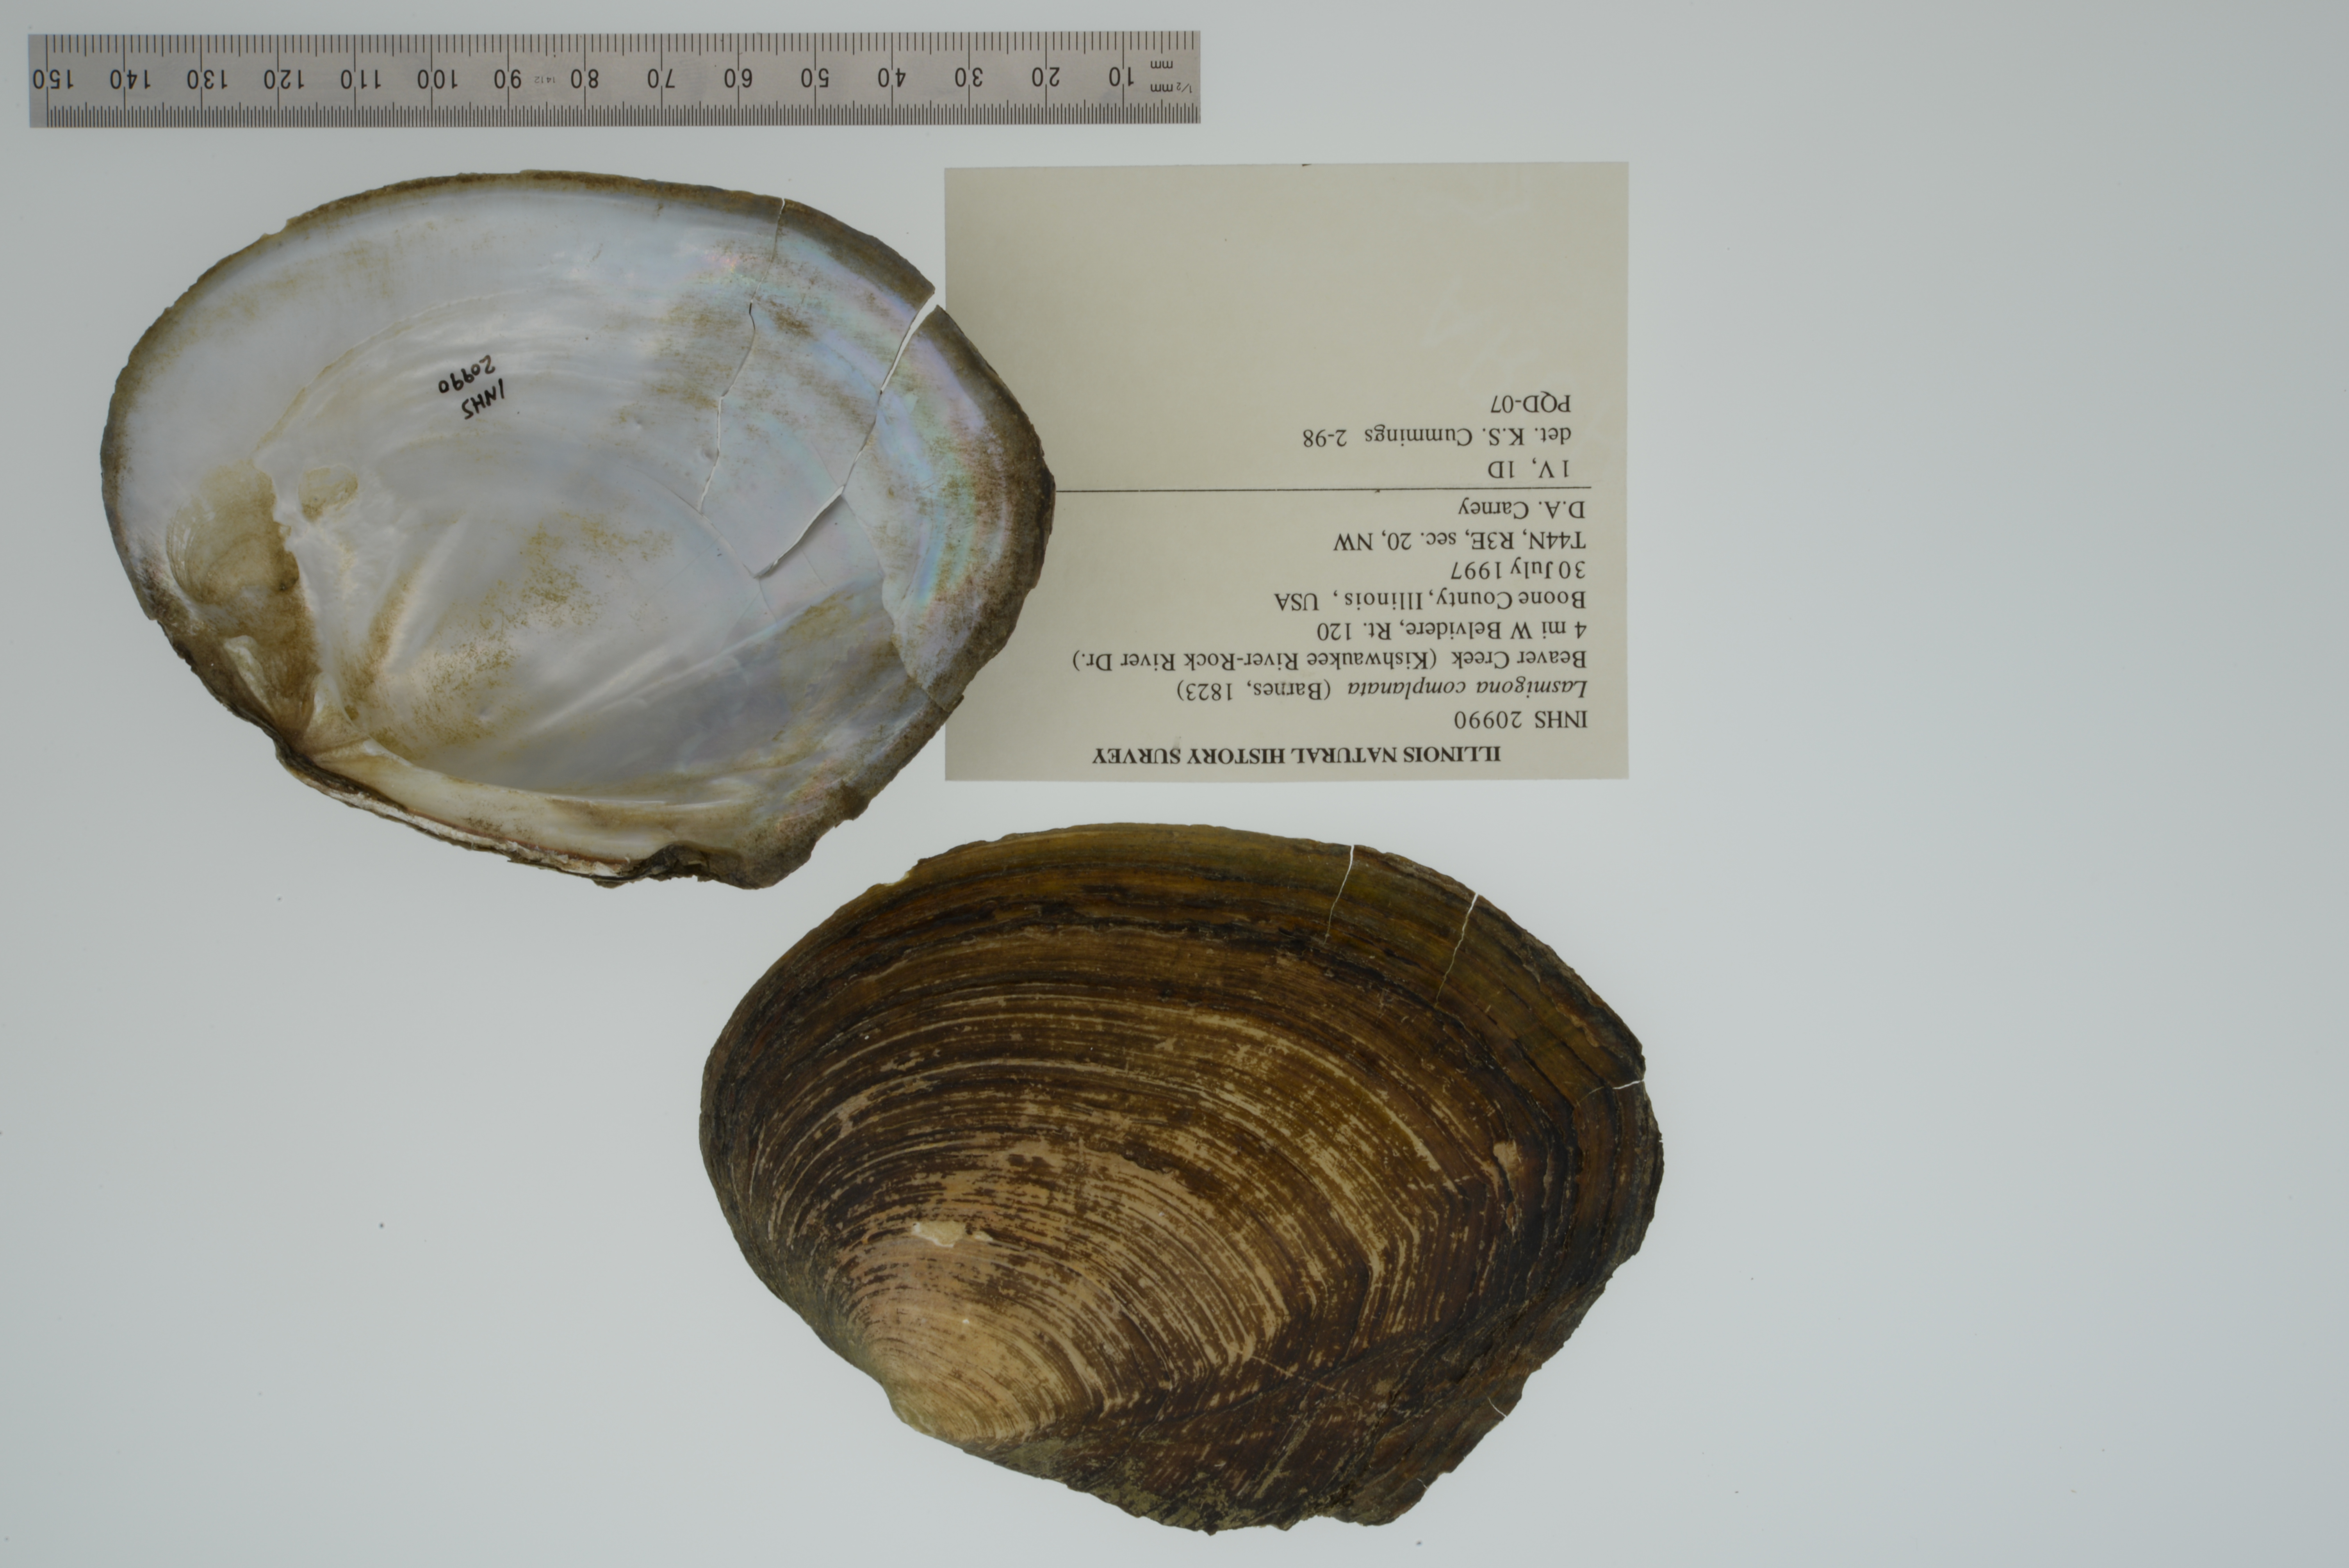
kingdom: Animalia
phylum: Mollusca
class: Bivalvia
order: Unionida
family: Unionidae
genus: Lasmigona
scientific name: Lasmigona complanata
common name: White heelsplitter
